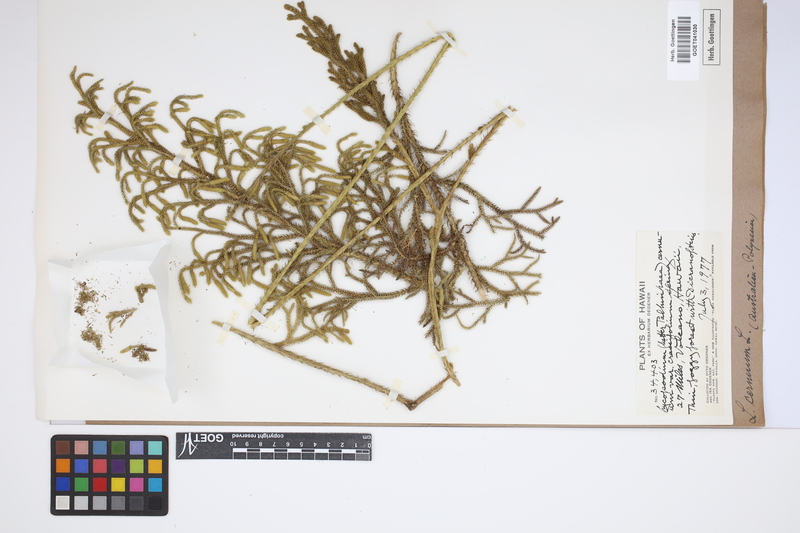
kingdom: Plantae
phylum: Tracheophyta
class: Lycopodiopsida
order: Lycopodiales
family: Lycopodiaceae
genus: Palhinhaea
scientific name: Palhinhaea cernua
